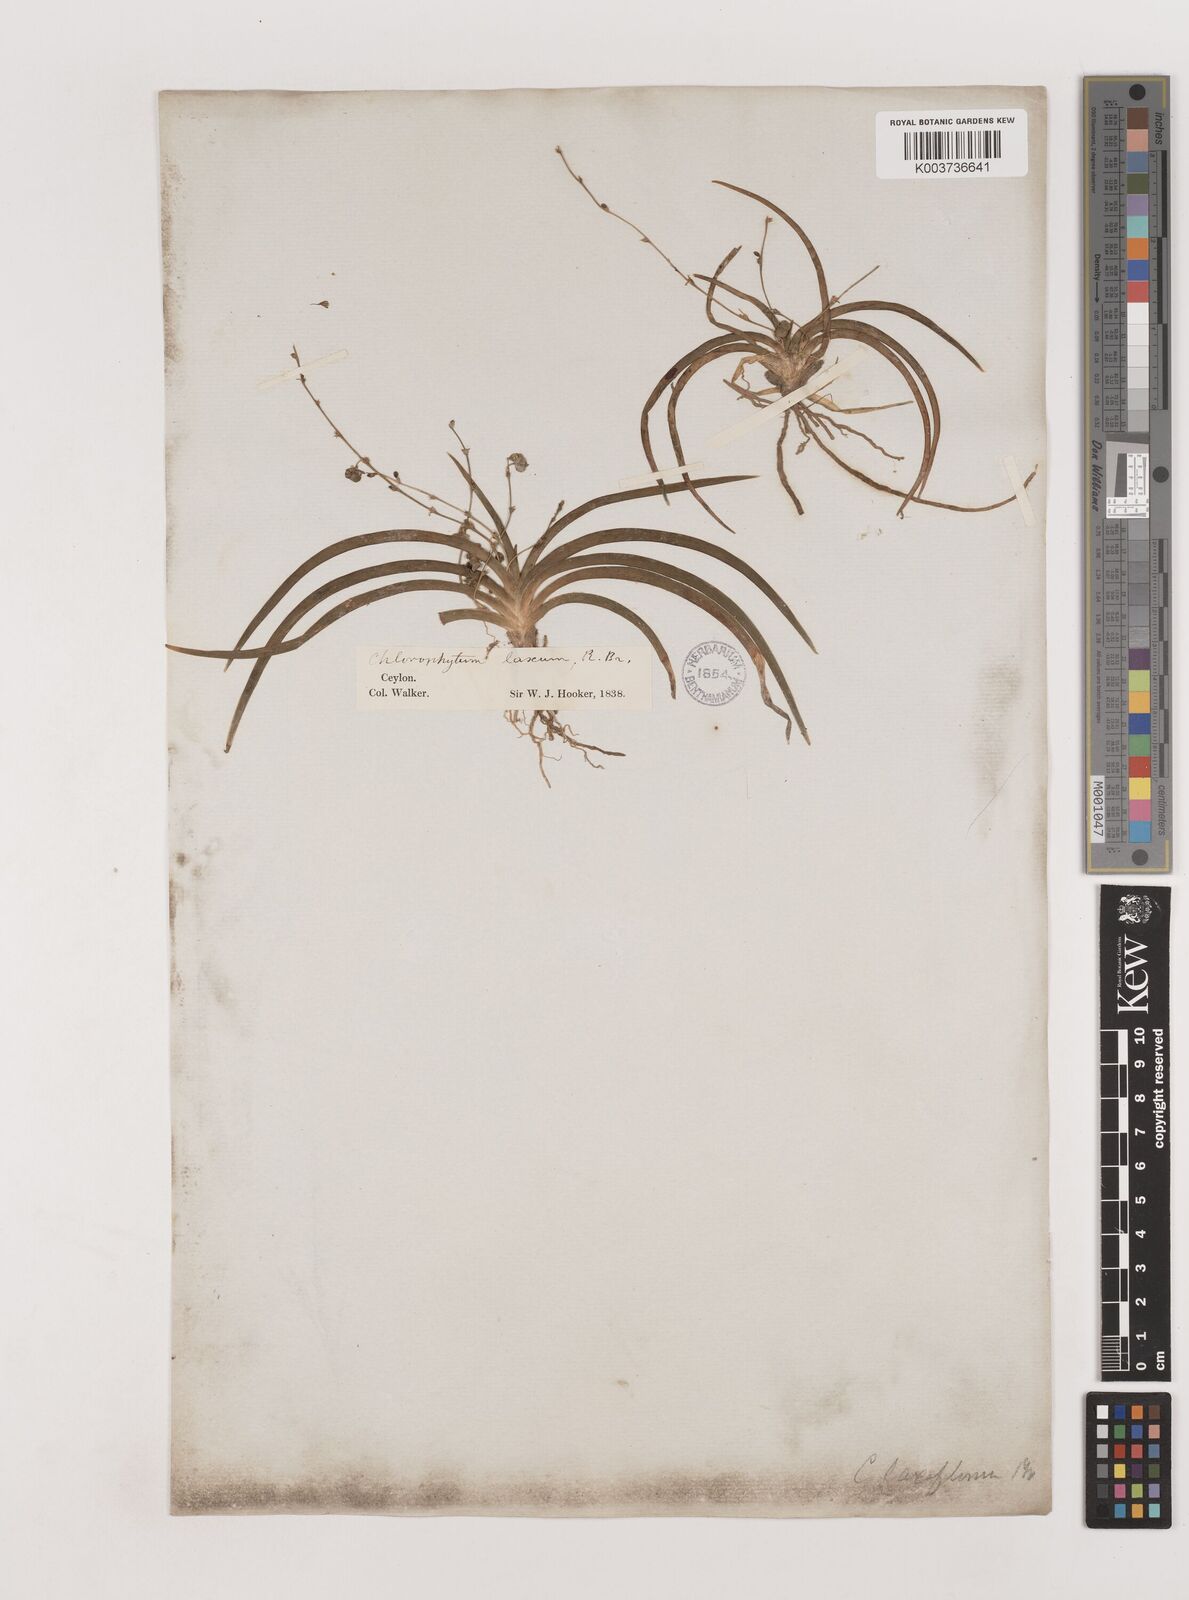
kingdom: Plantae
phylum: Tracheophyta
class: Liliopsida
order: Asparagales
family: Asparagaceae
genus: Chlorophytum
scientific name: Chlorophytum laxum
